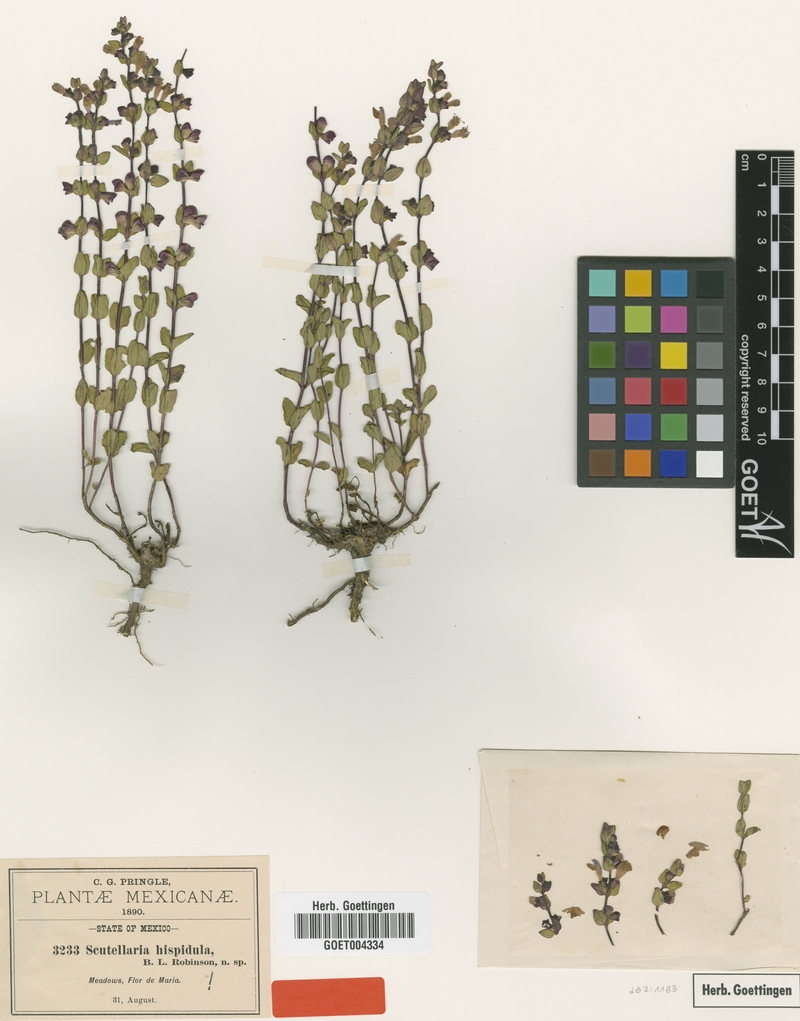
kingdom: Plantae
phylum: Tracheophyta
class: Magnoliopsida
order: Lamiales
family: Lamiaceae
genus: Scutellaria
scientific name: Scutellaria hispidula
